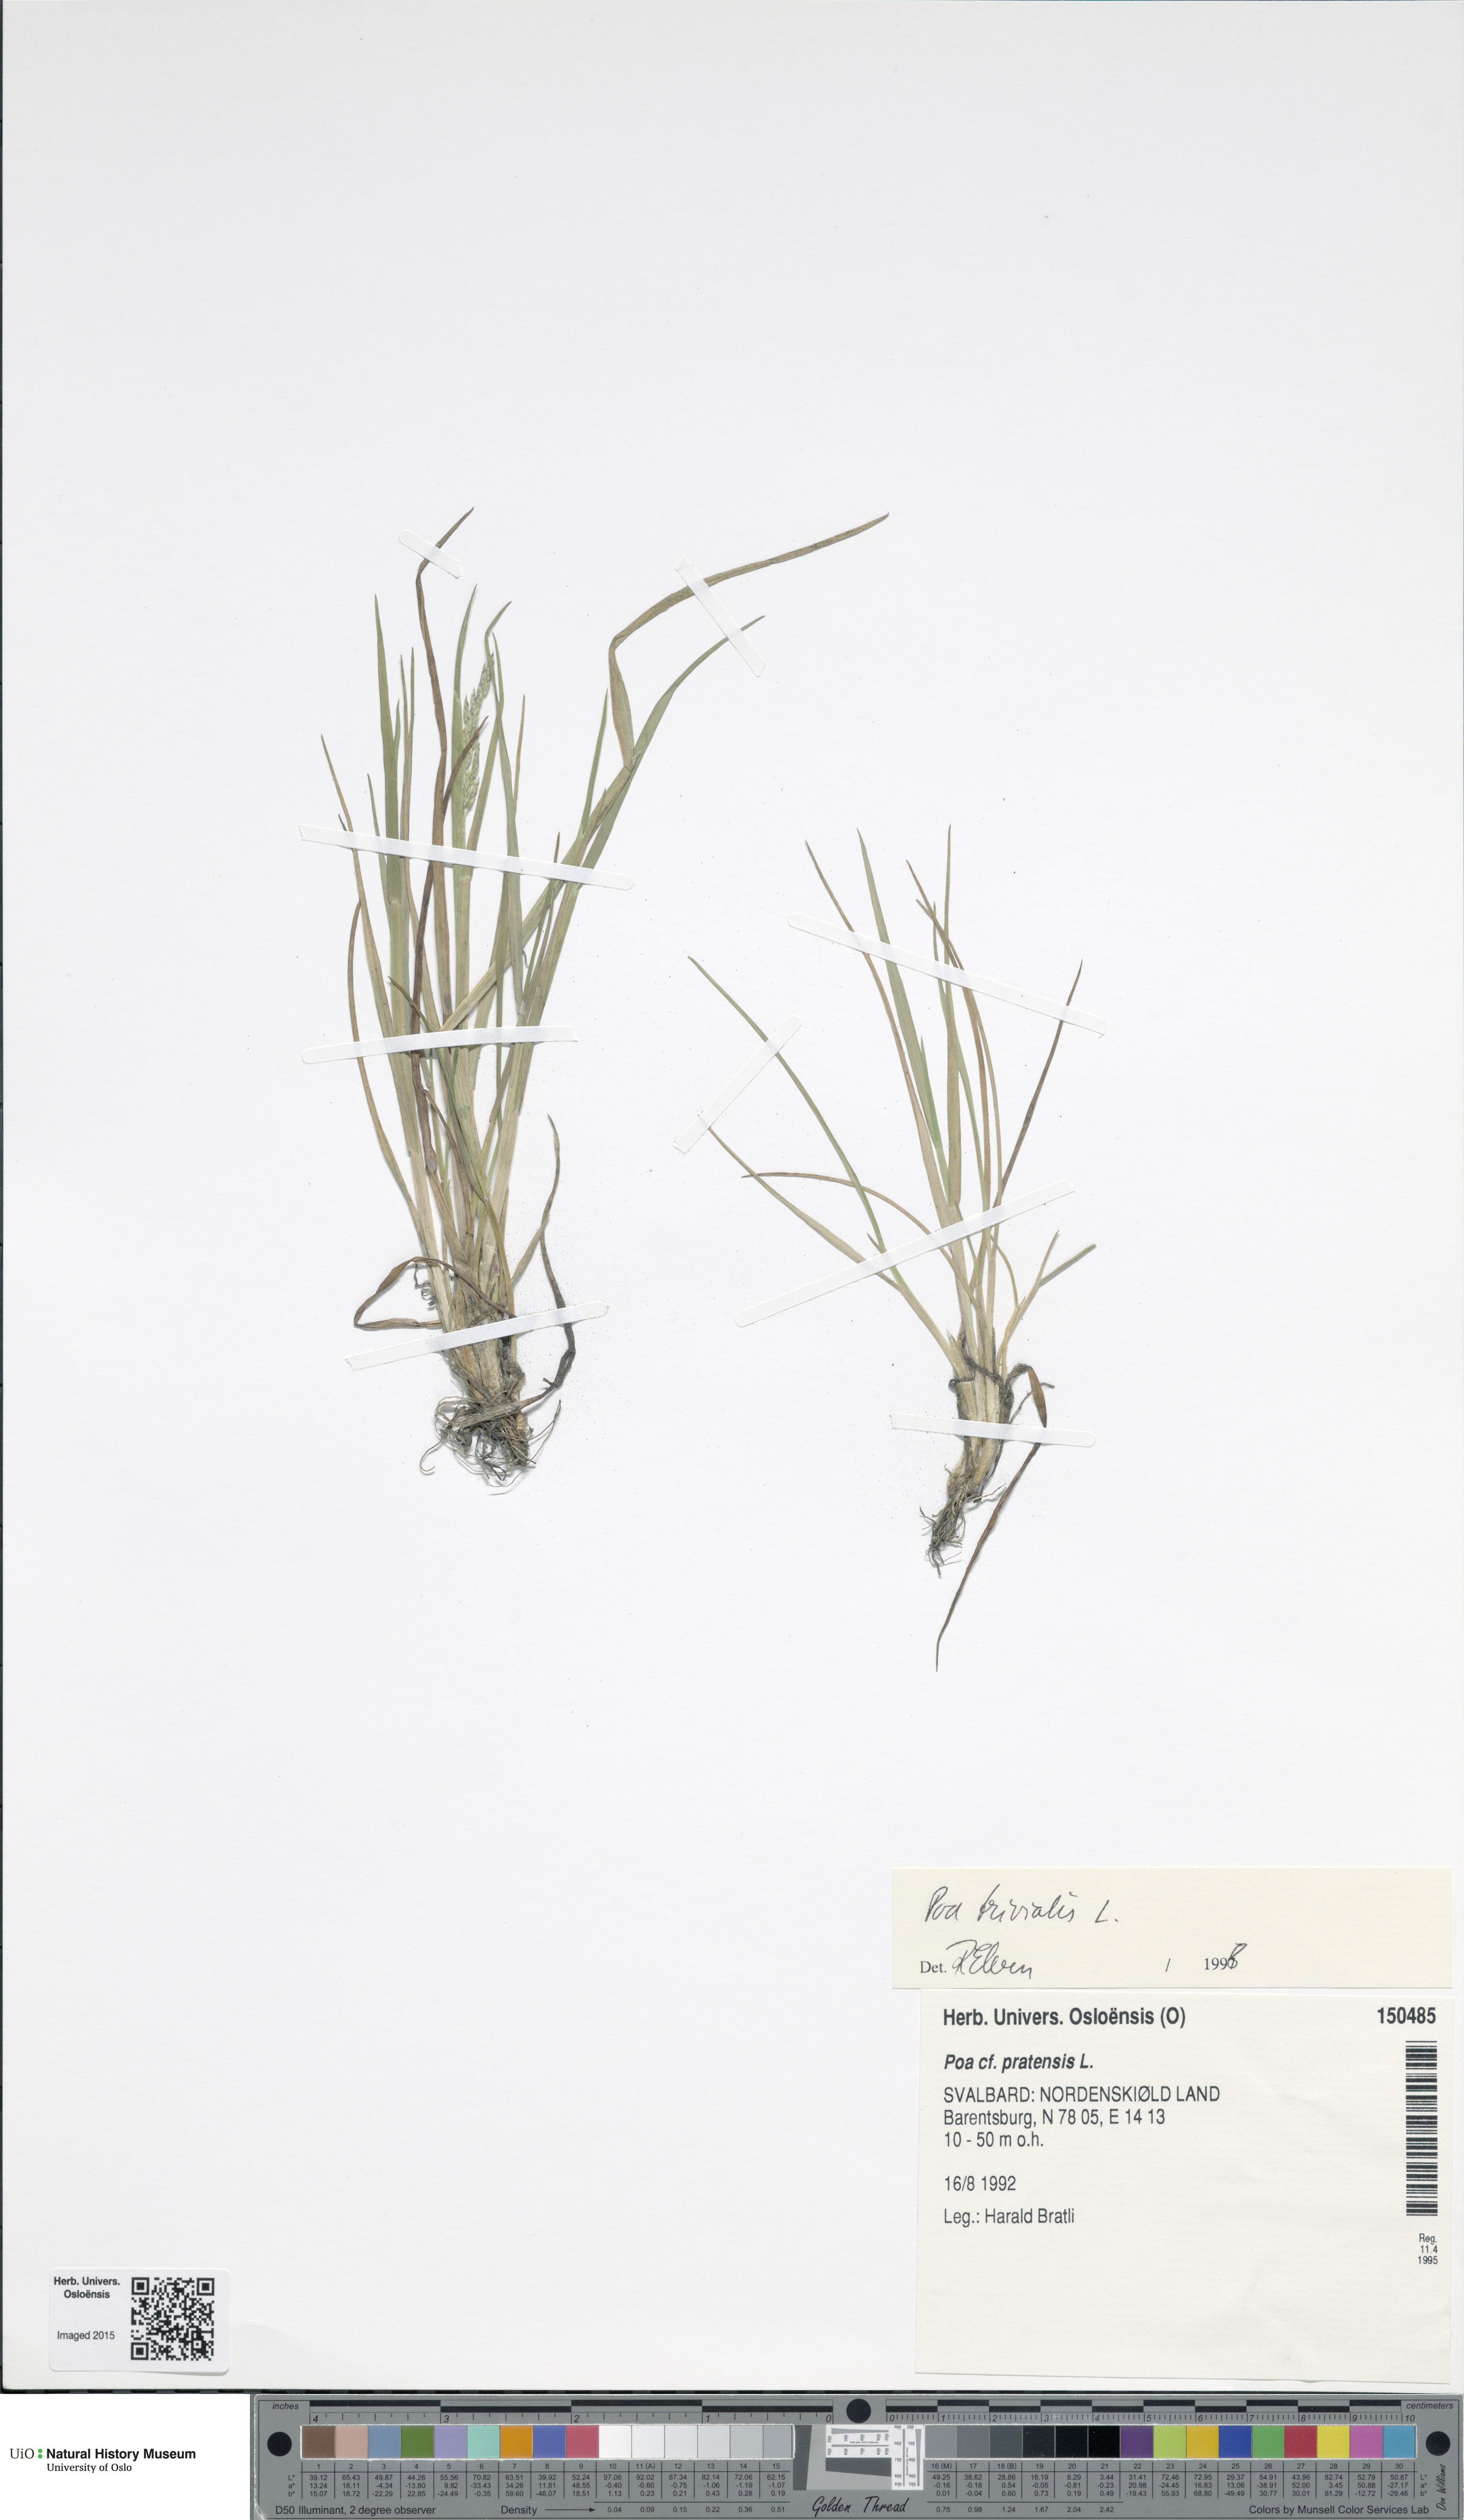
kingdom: Plantae
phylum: Tracheophyta
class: Liliopsida
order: Poales
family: Poaceae
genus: Poa
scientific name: Poa trivialis
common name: Rough bluegrass
